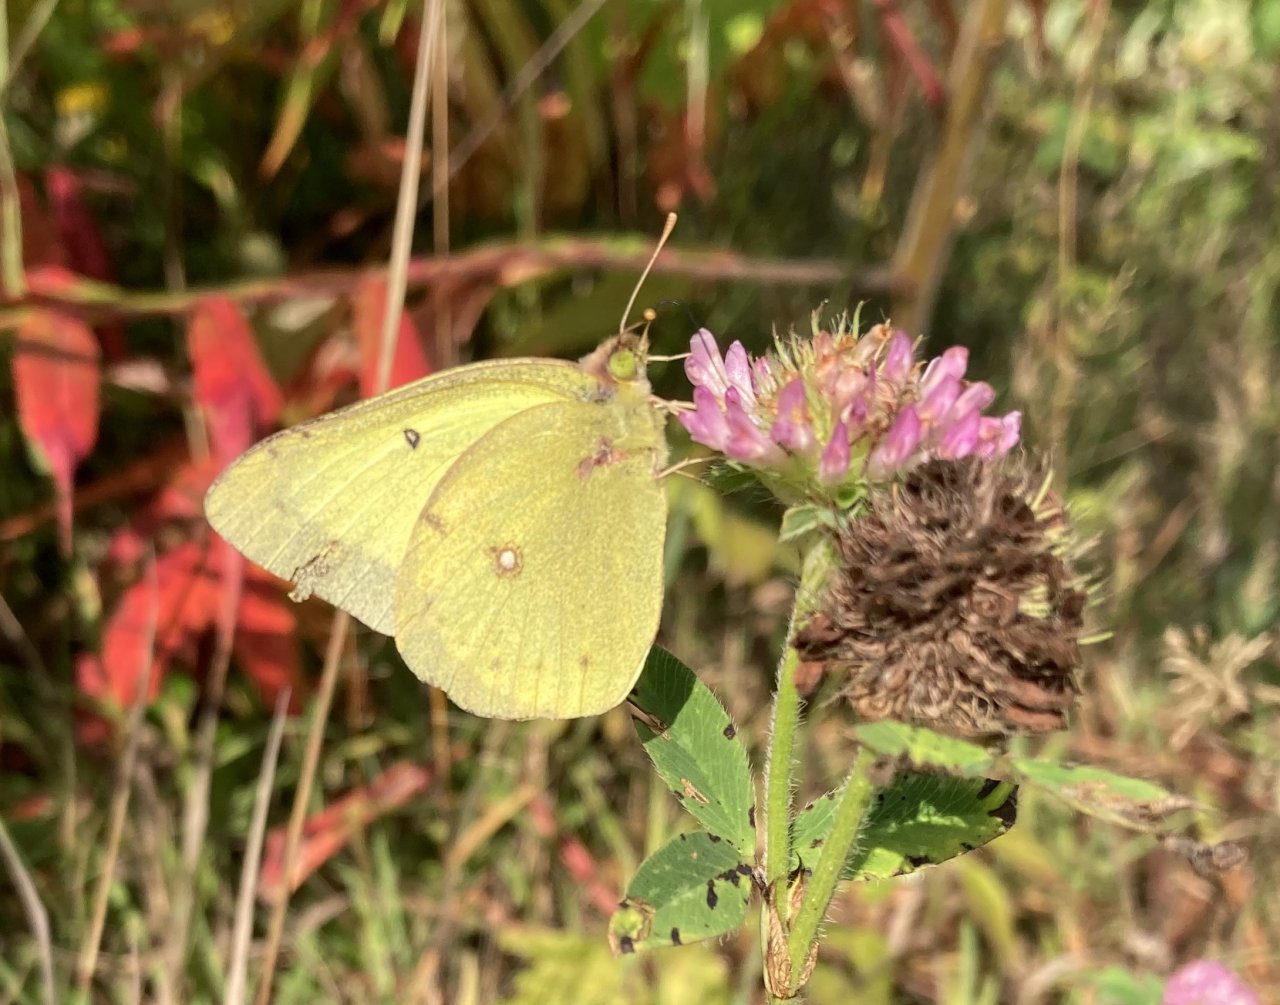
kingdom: Animalia
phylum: Arthropoda
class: Insecta
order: Lepidoptera
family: Pieridae
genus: Colias
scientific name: Colias philodice
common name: Clouded Sulphur
